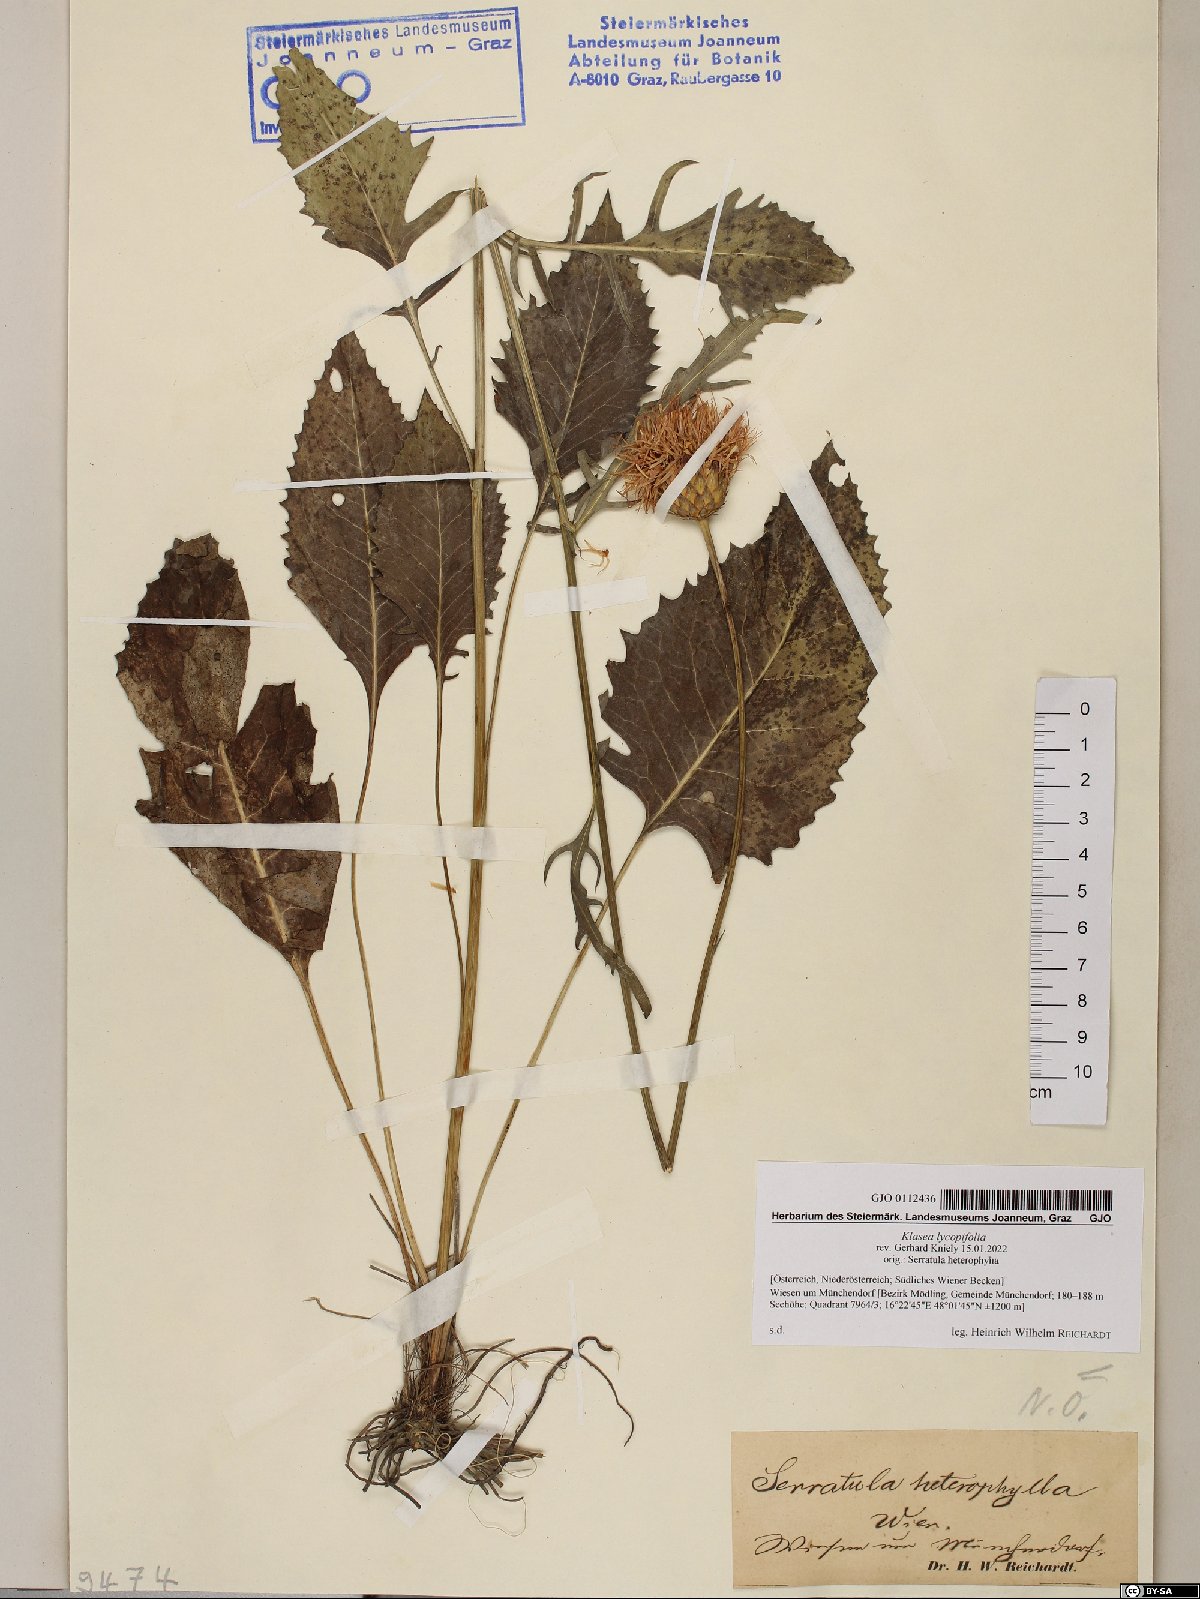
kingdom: Plantae
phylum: Tracheophyta
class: Magnoliopsida
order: Asterales
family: Asteraceae
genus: Klasea
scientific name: Klasea lycopifolia
